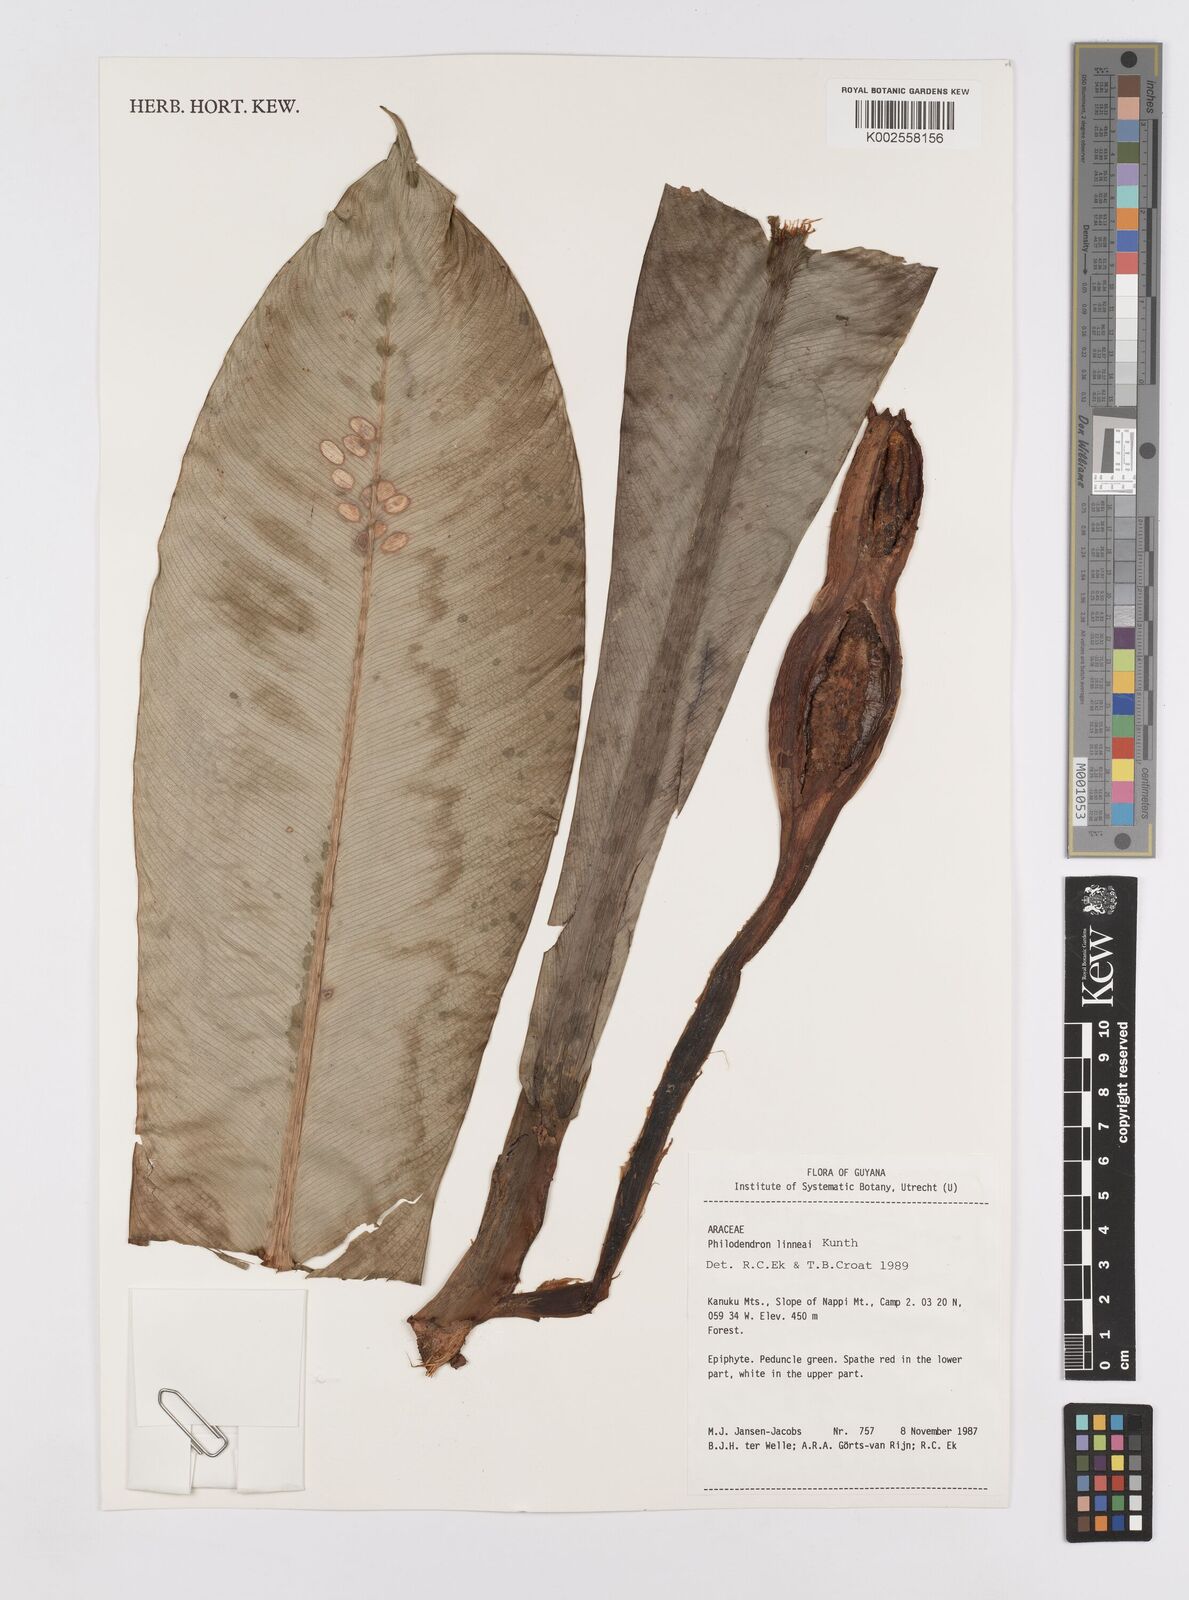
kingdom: Plantae
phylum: Tracheophyta
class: Liliopsida
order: Alismatales
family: Araceae
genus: Philodendron
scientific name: Philodendron linnaei
